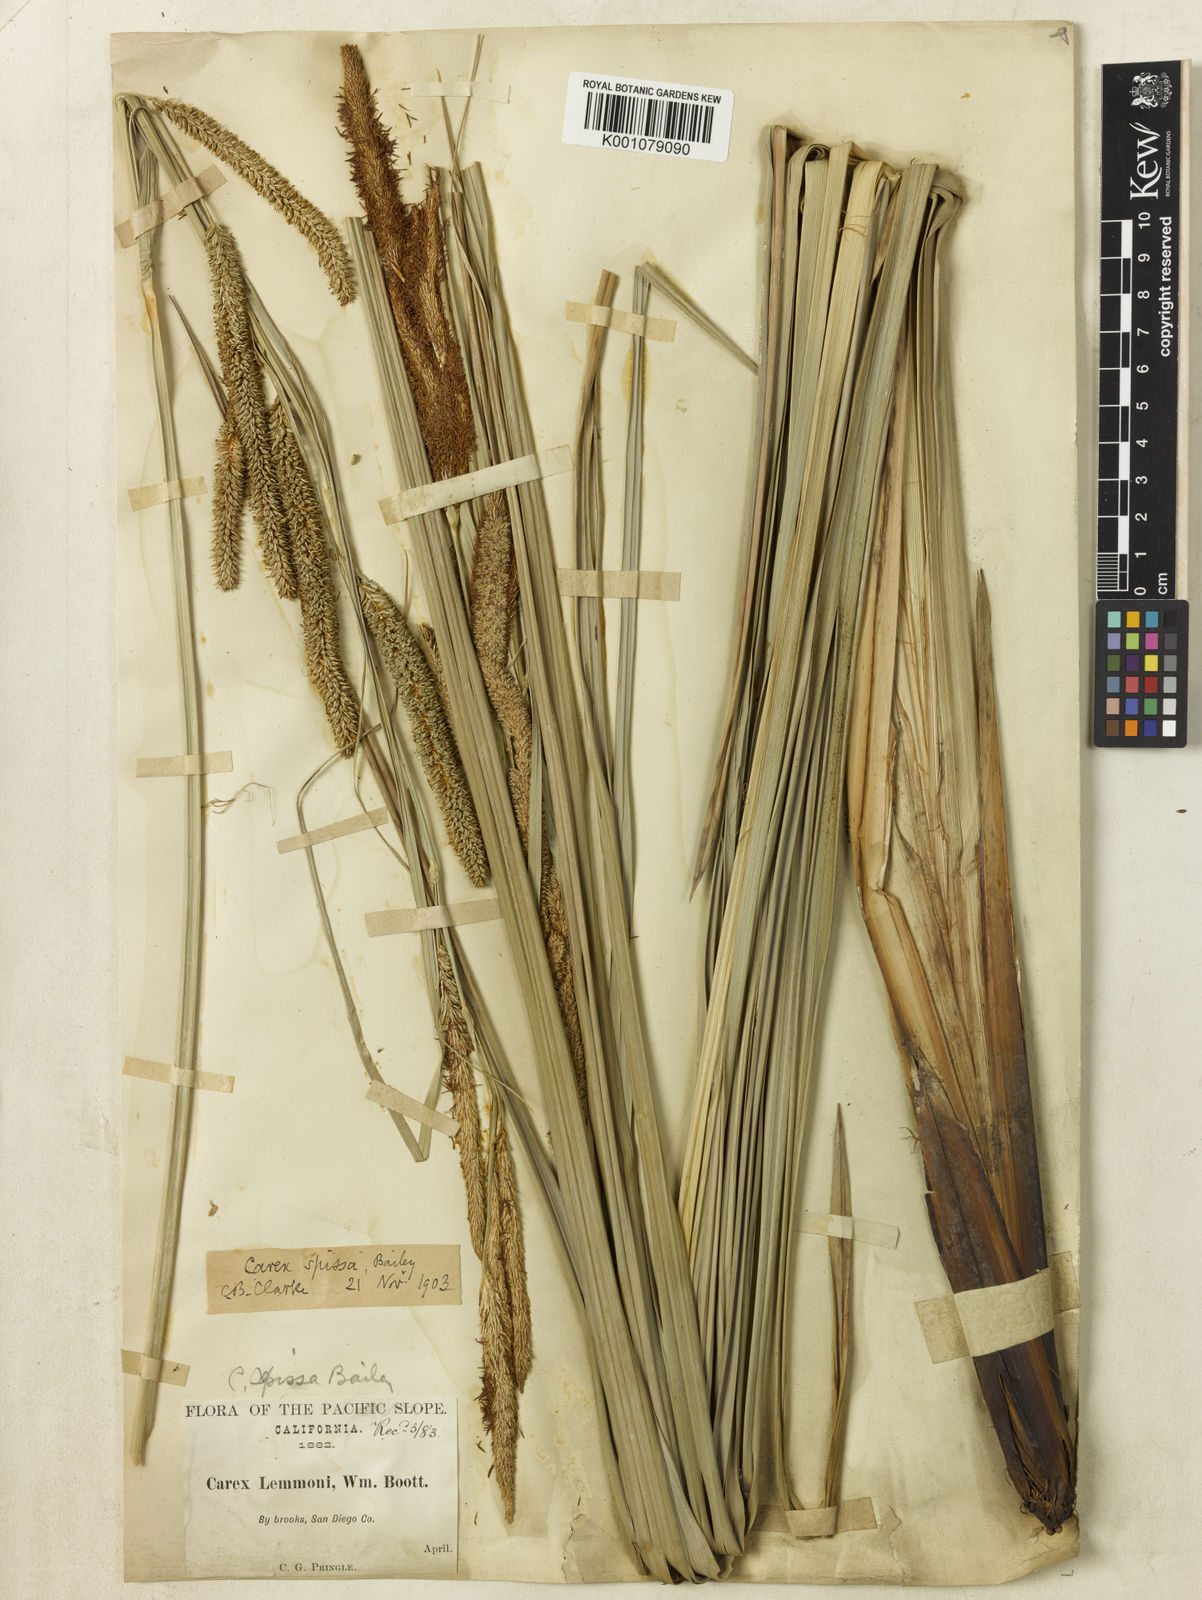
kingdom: Plantae
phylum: Tracheophyta
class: Liliopsida
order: Poales
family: Cyperaceae
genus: Carex
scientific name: Carex
